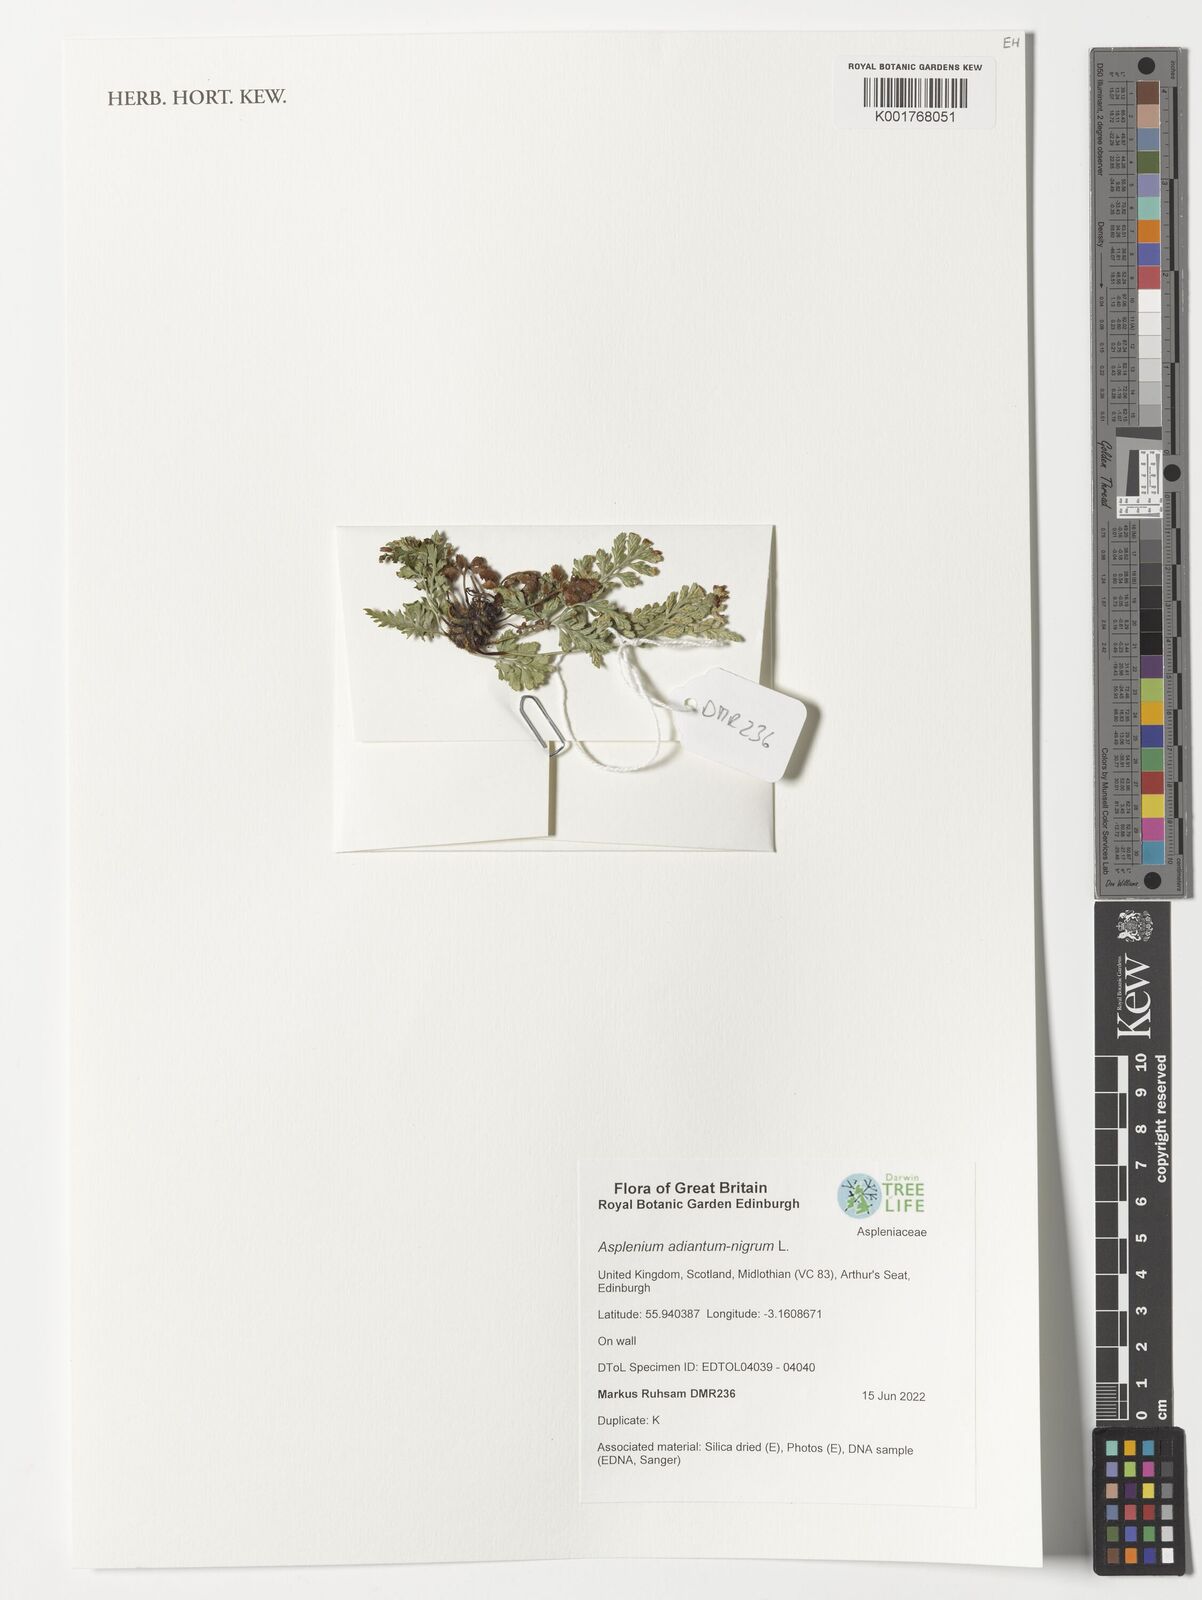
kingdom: Plantae
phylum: Tracheophyta
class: Polypodiopsida
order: Polypodiales
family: Aspleniaceae
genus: Asplenium
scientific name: Asplenium adiantum-nigrum
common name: Black spleenwort
